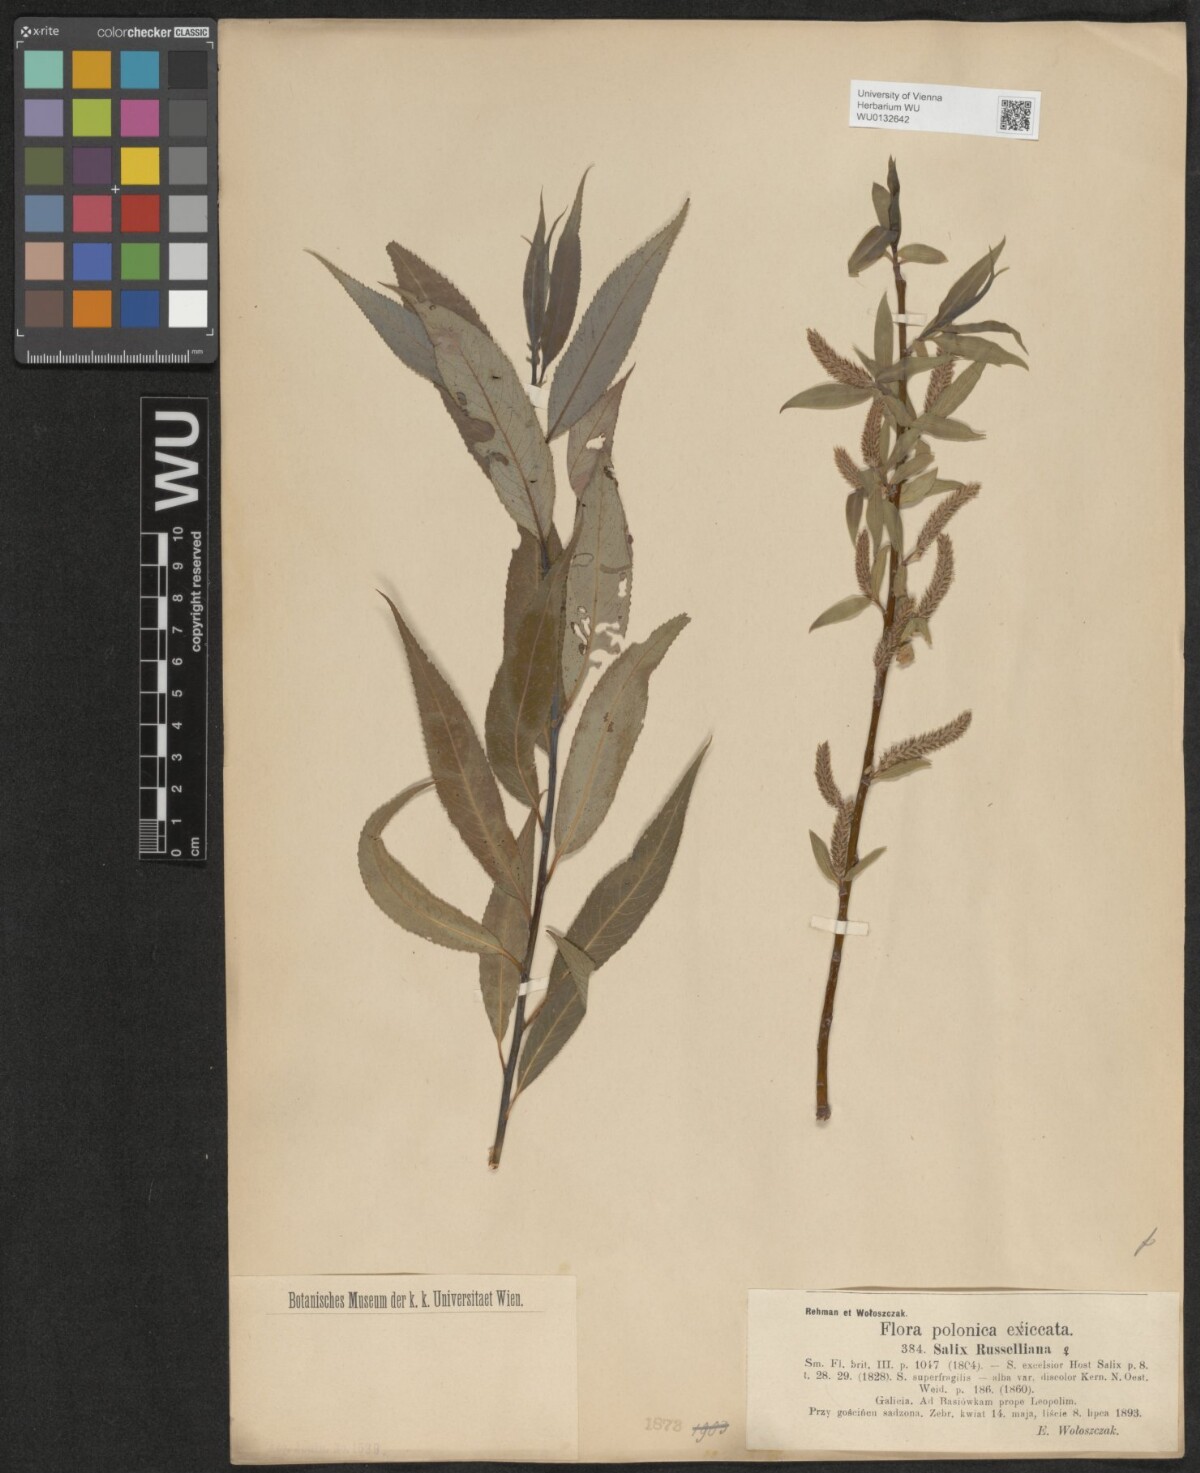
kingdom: Plantae
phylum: Tracheophyta
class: Magnoliopsida
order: Malpighiales
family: Salicaceae
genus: Salix
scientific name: Salix
